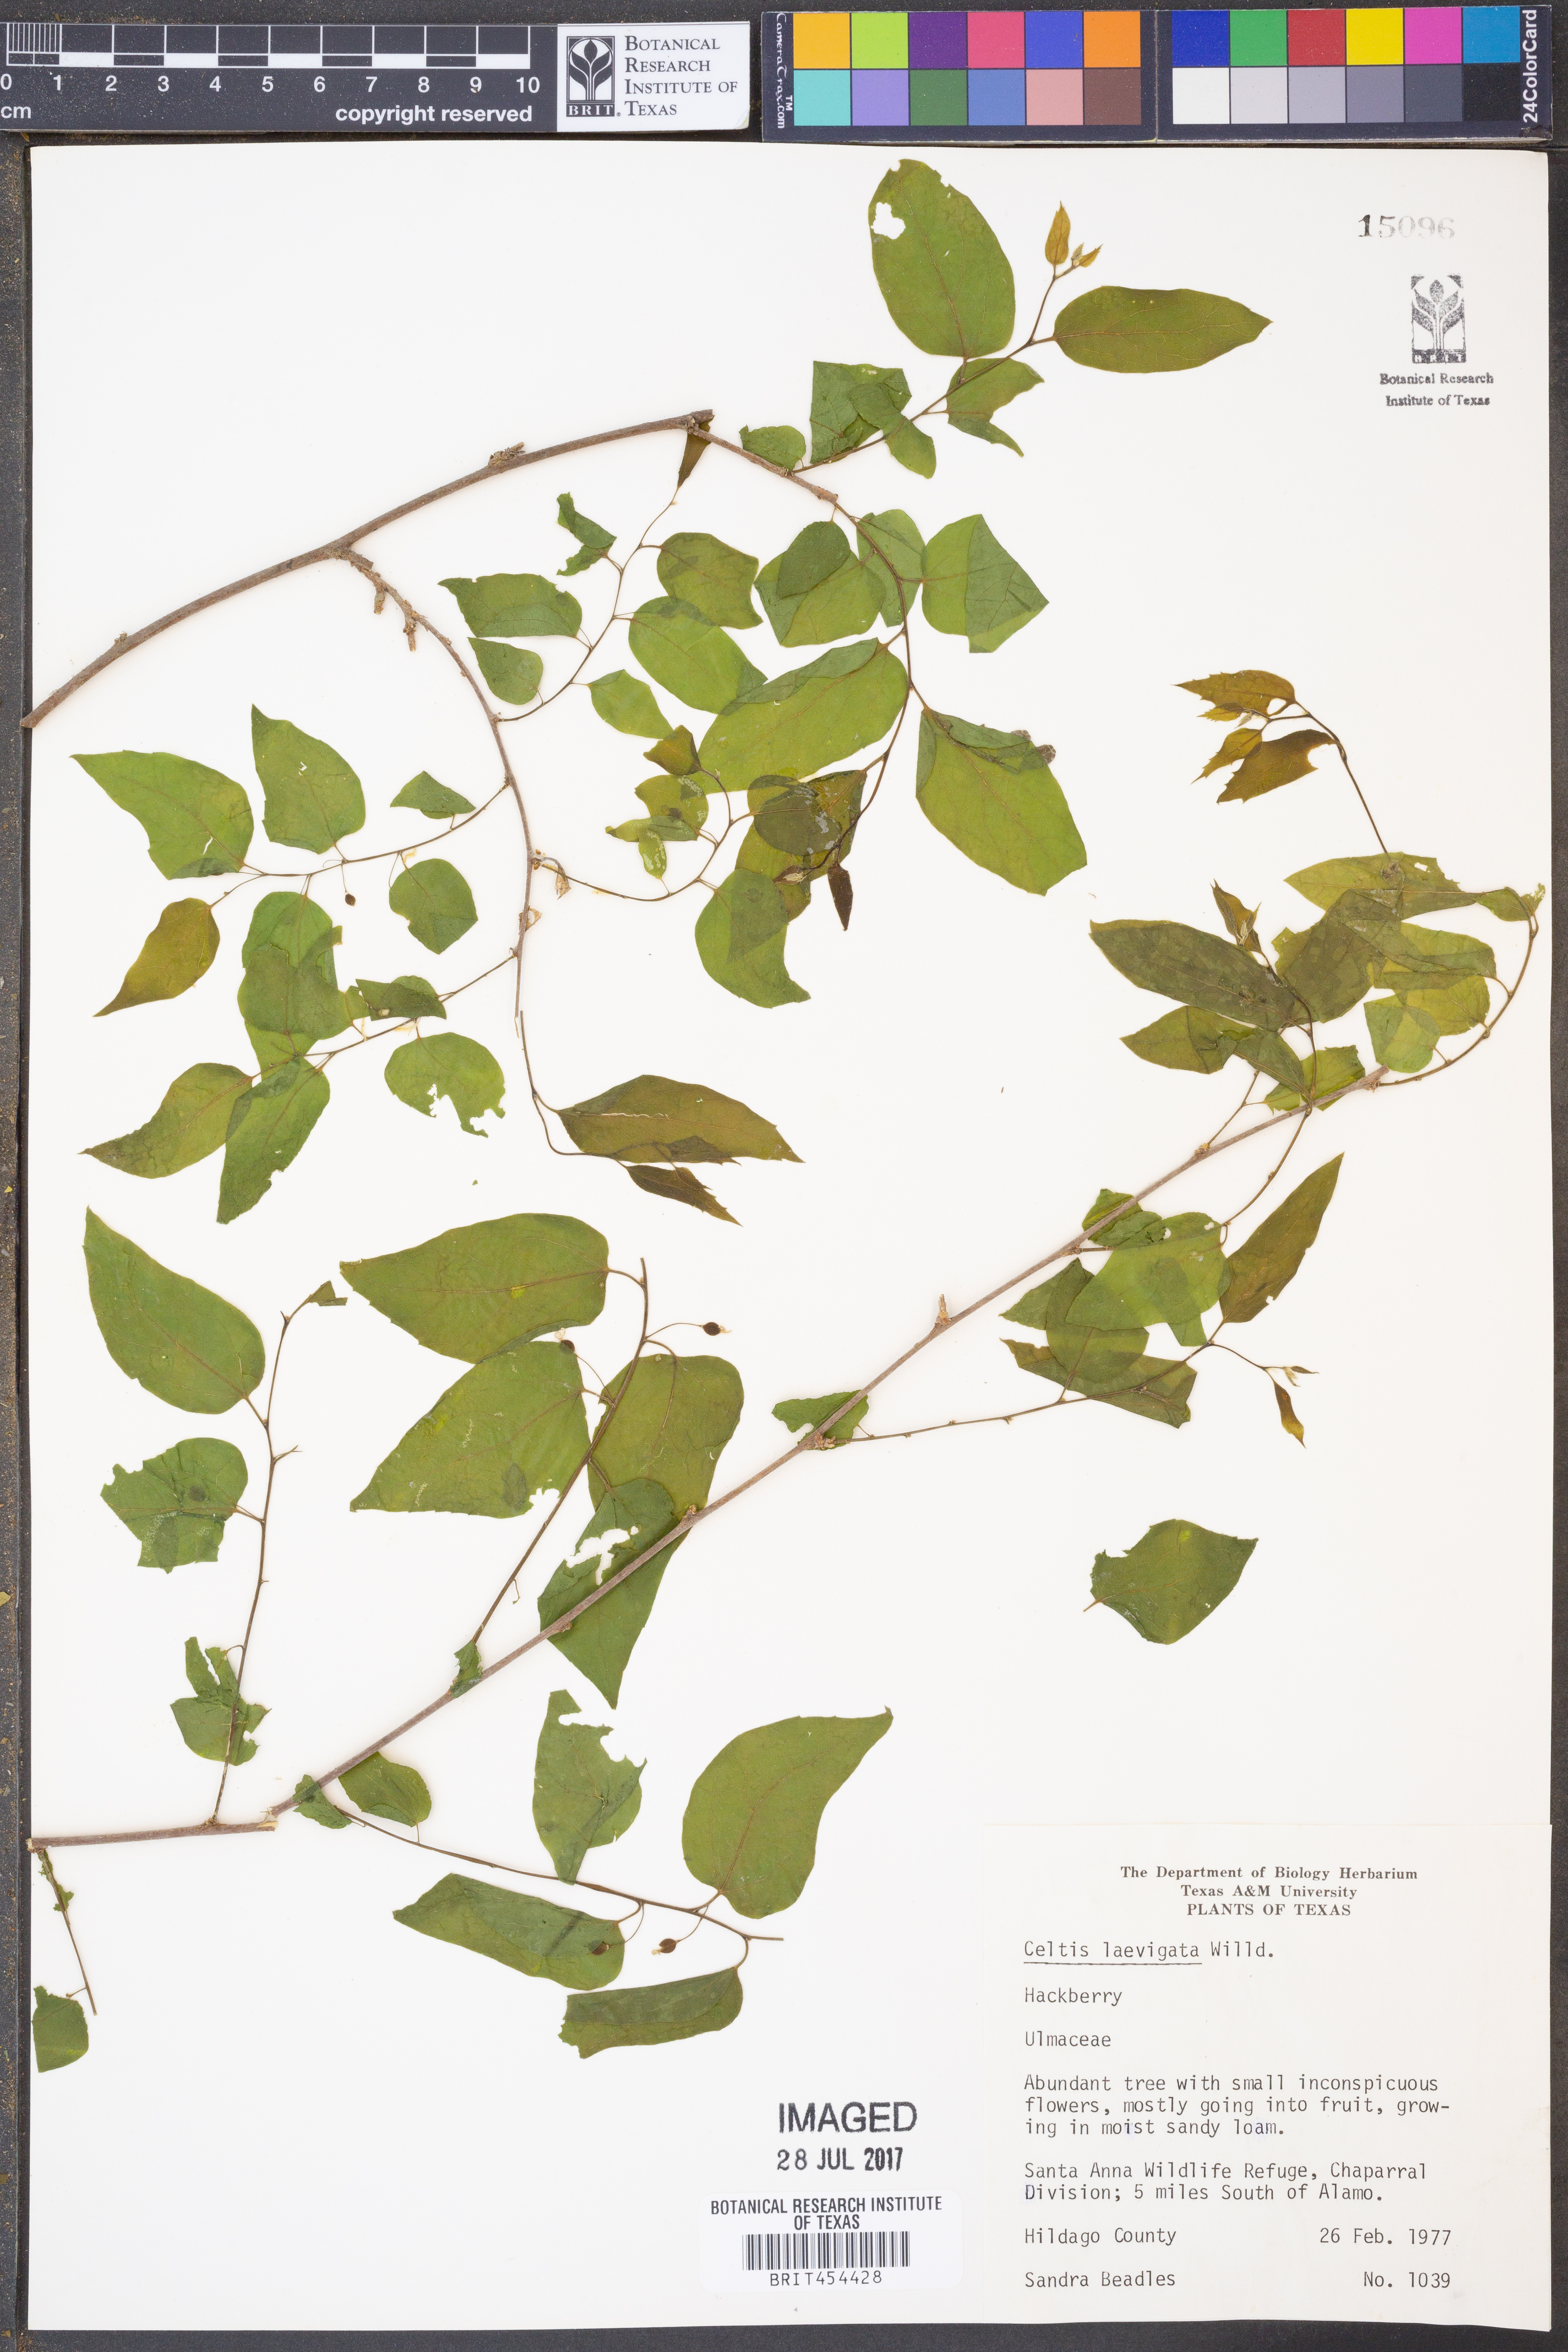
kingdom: Plantae
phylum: Tracheophyta
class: Magnoliopsida
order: Rosales
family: Cannabaceae
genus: Celtis
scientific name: Celtis laevigata
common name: Sugarberry
